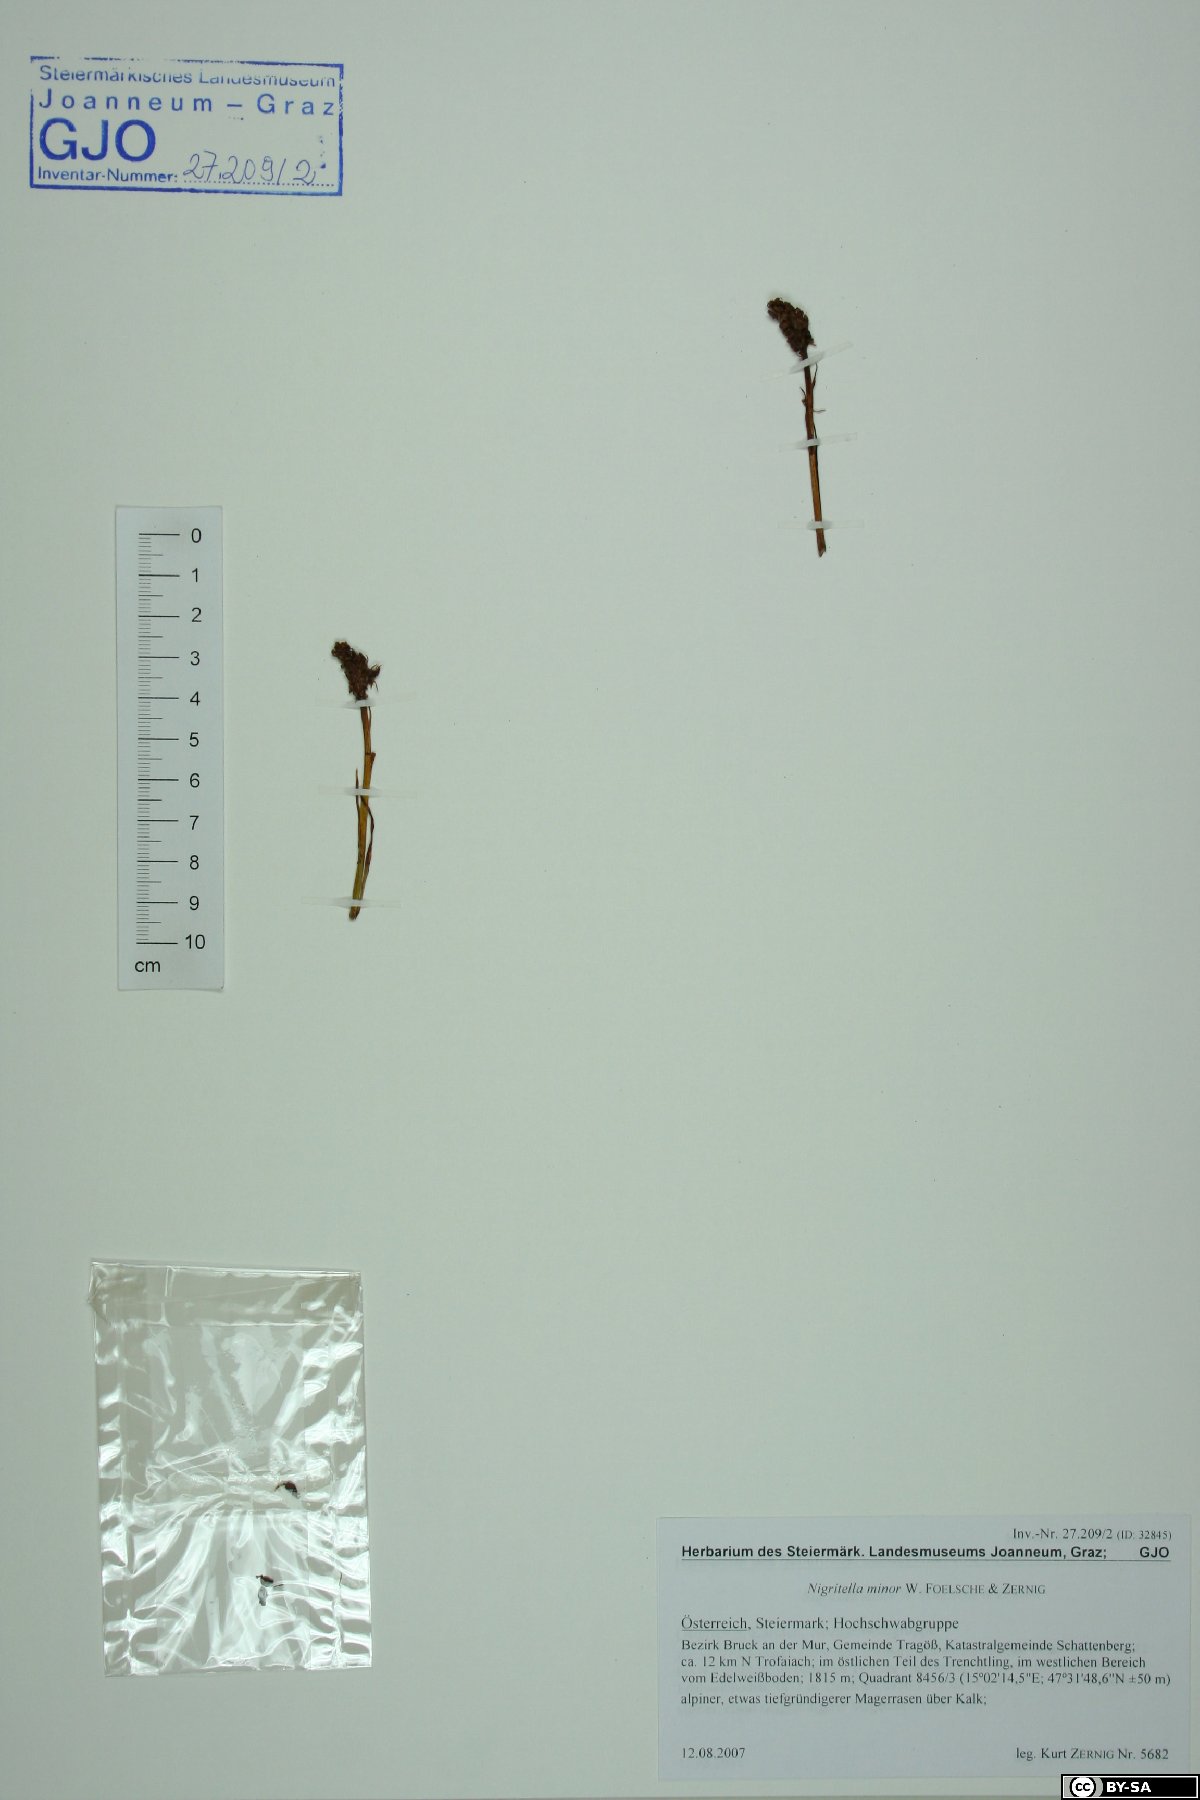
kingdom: Plantae
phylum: Tracheophyta
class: Liliopsida
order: Asparagales
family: Orchidaceae
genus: Gymnadenia
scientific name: Gymnadenia miniata
